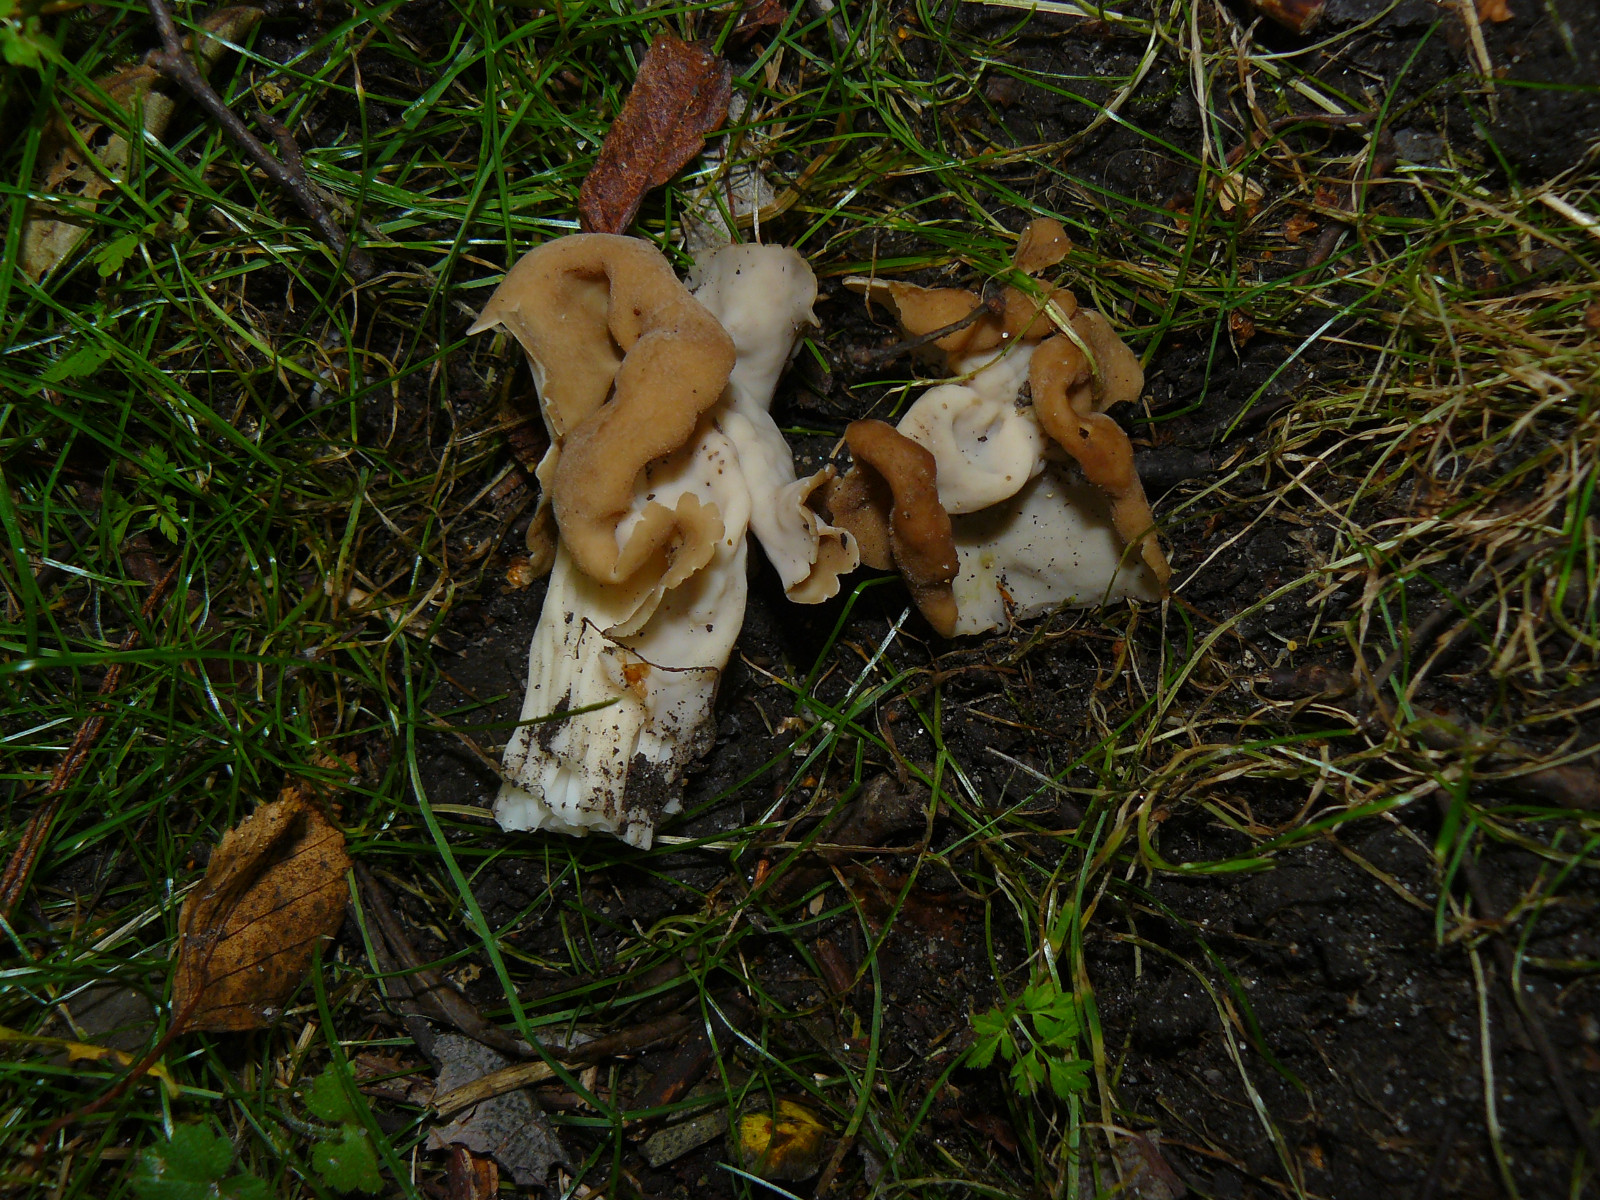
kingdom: Fungi
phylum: Ascomycota
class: Pezizomycetes
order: Pezizales
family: Helvellaceae
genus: Helvella
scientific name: Helvella crispa
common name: kruset foldhat
